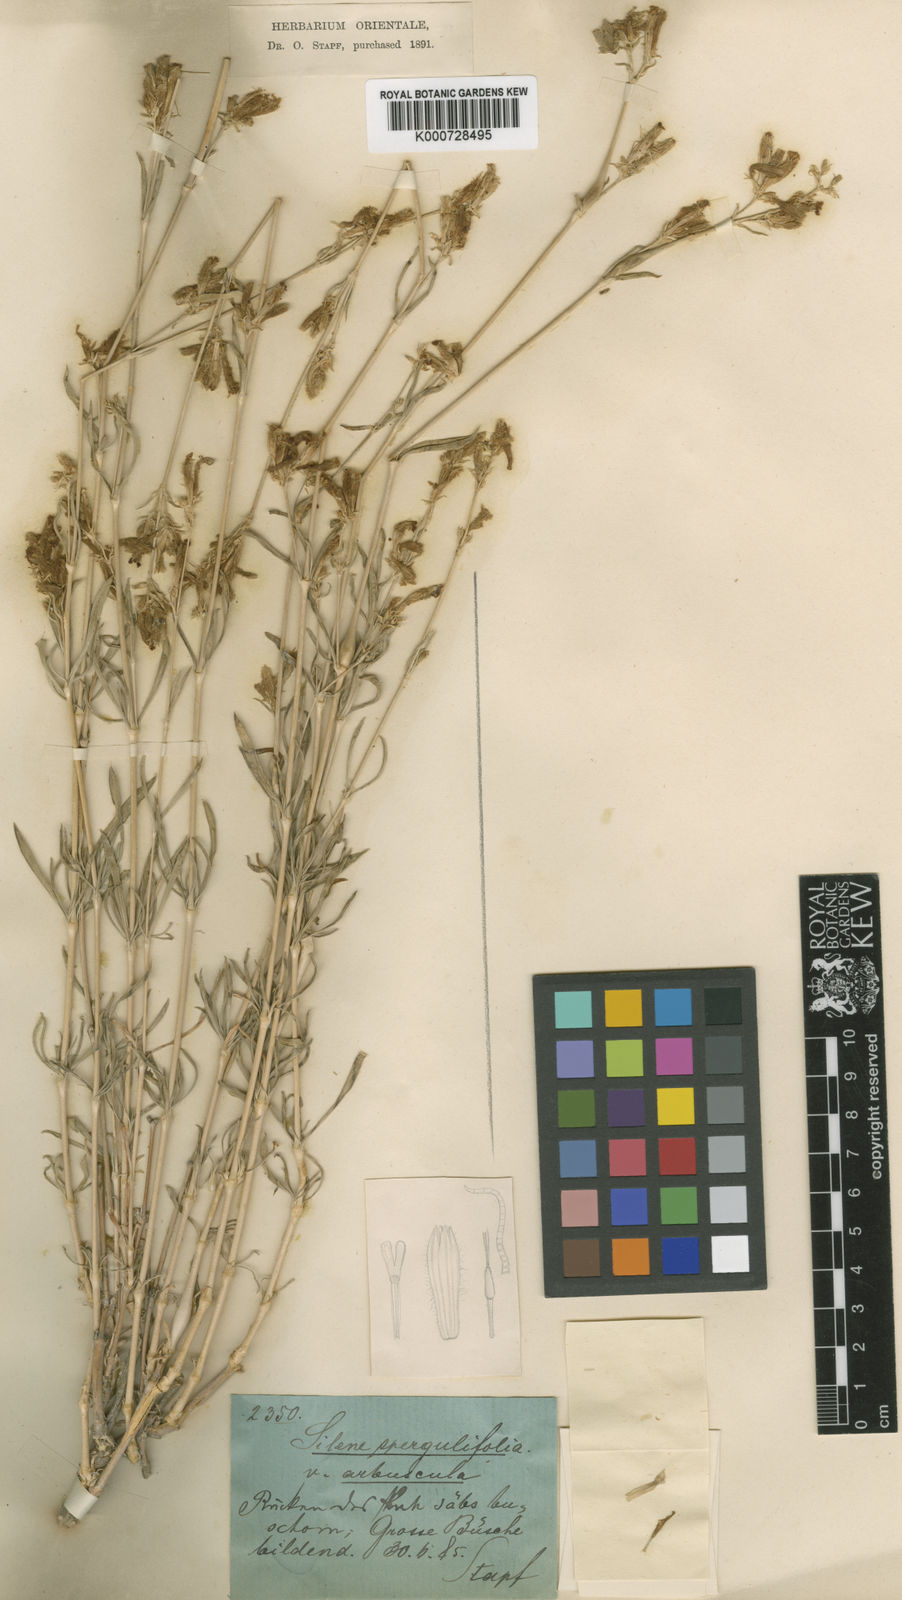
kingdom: Plantae
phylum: Tracheophyta
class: Magnoliopsida
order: Caryophyllales
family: Caryophyllaceae
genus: Silene
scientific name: Silene spergulifolia
